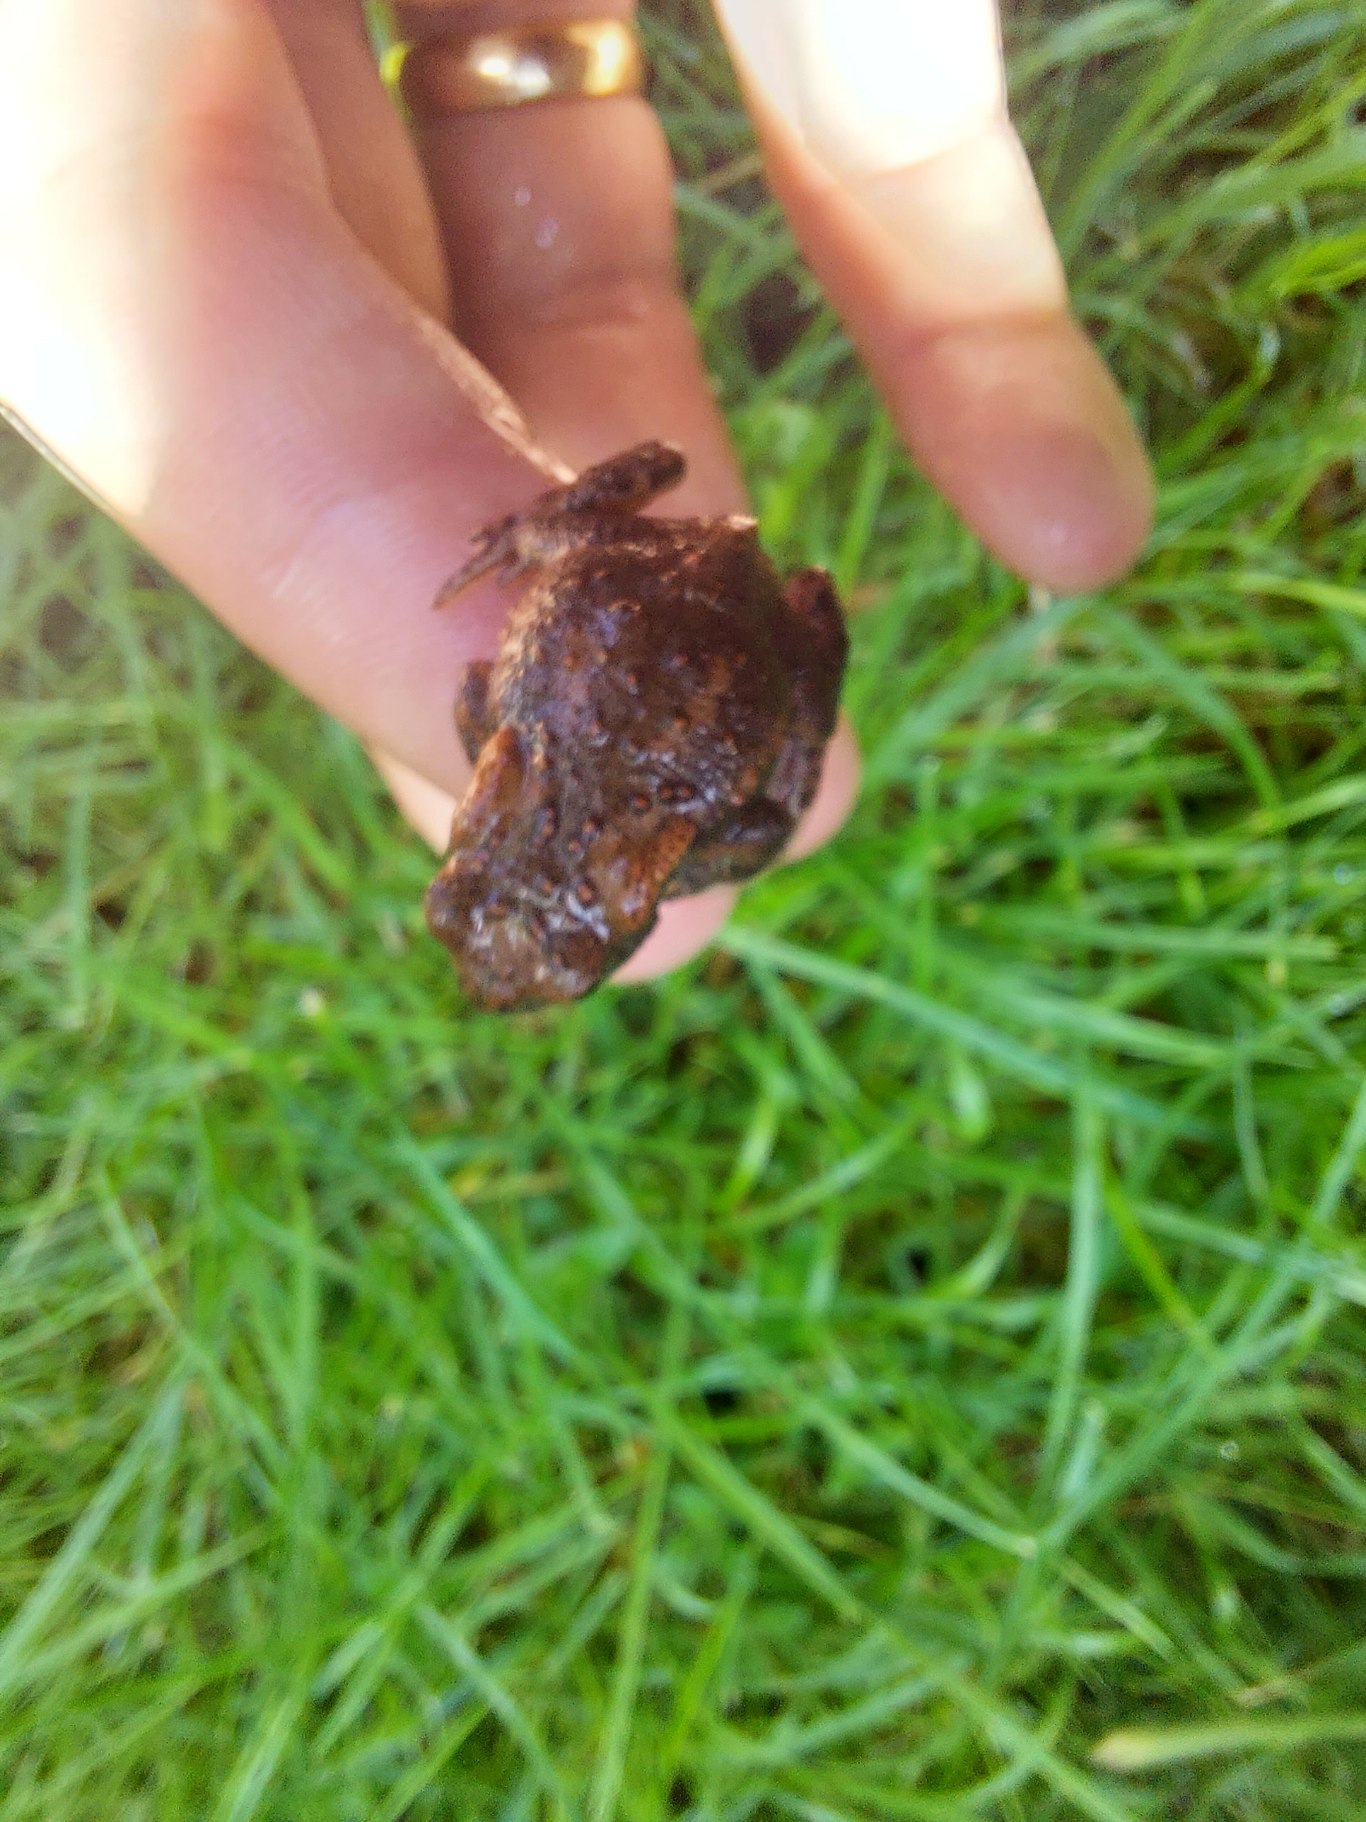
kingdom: Animalia
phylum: Chordata
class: Amphibia
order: Anura
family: Bufonidae
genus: Bufo
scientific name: Bufo bufo
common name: Skrubtudse
